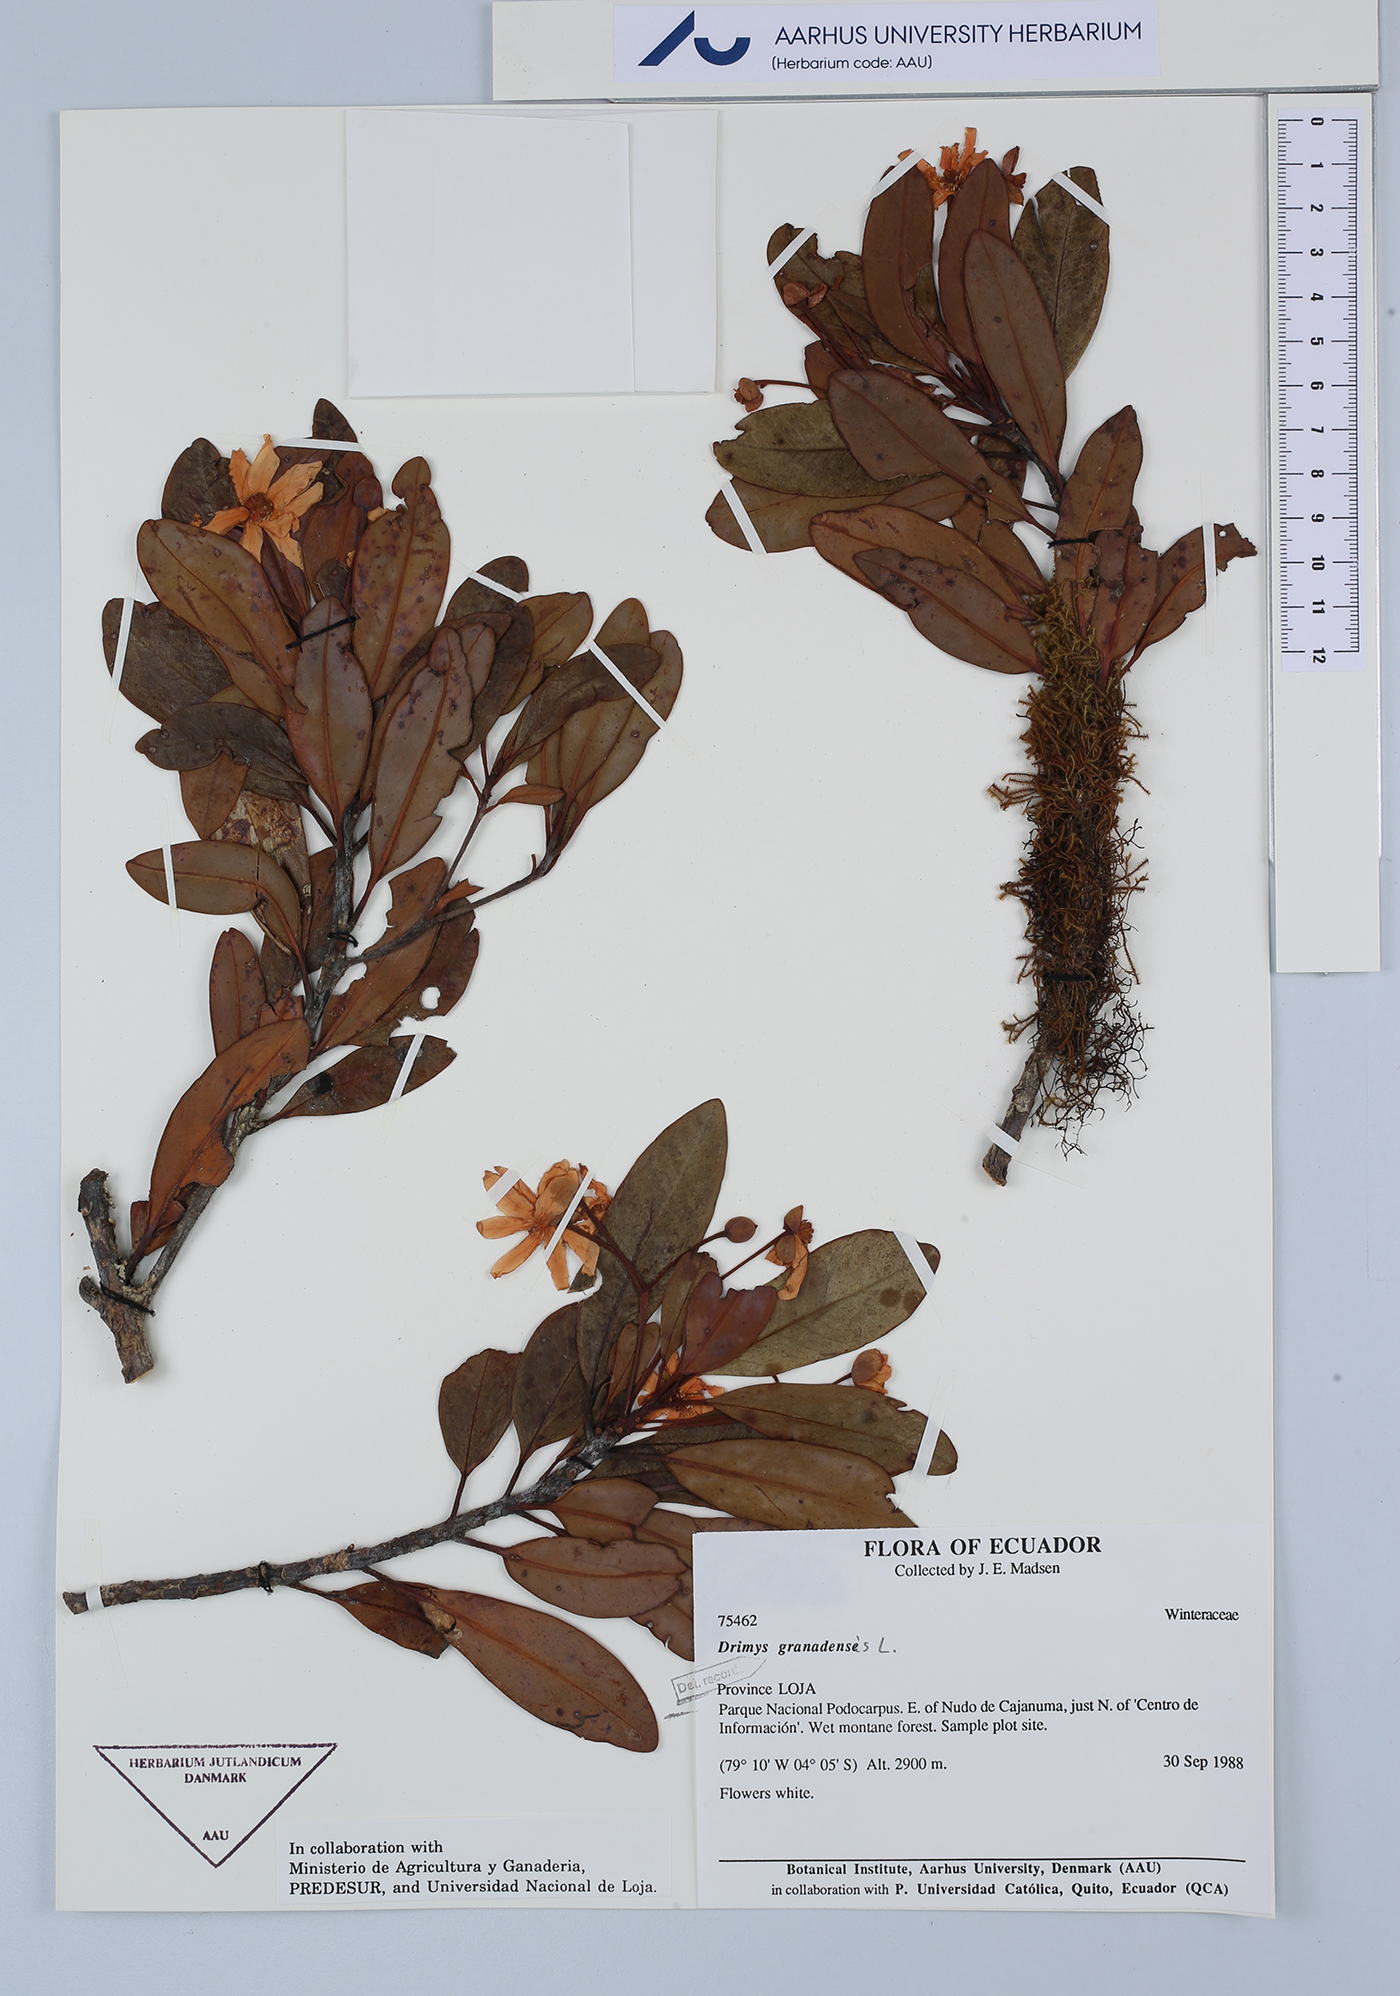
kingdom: Plantae
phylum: Tracheophyta
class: Magnoliopsida
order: Canellales
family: Winteraceae
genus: Drimys
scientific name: Drimys granadensis
